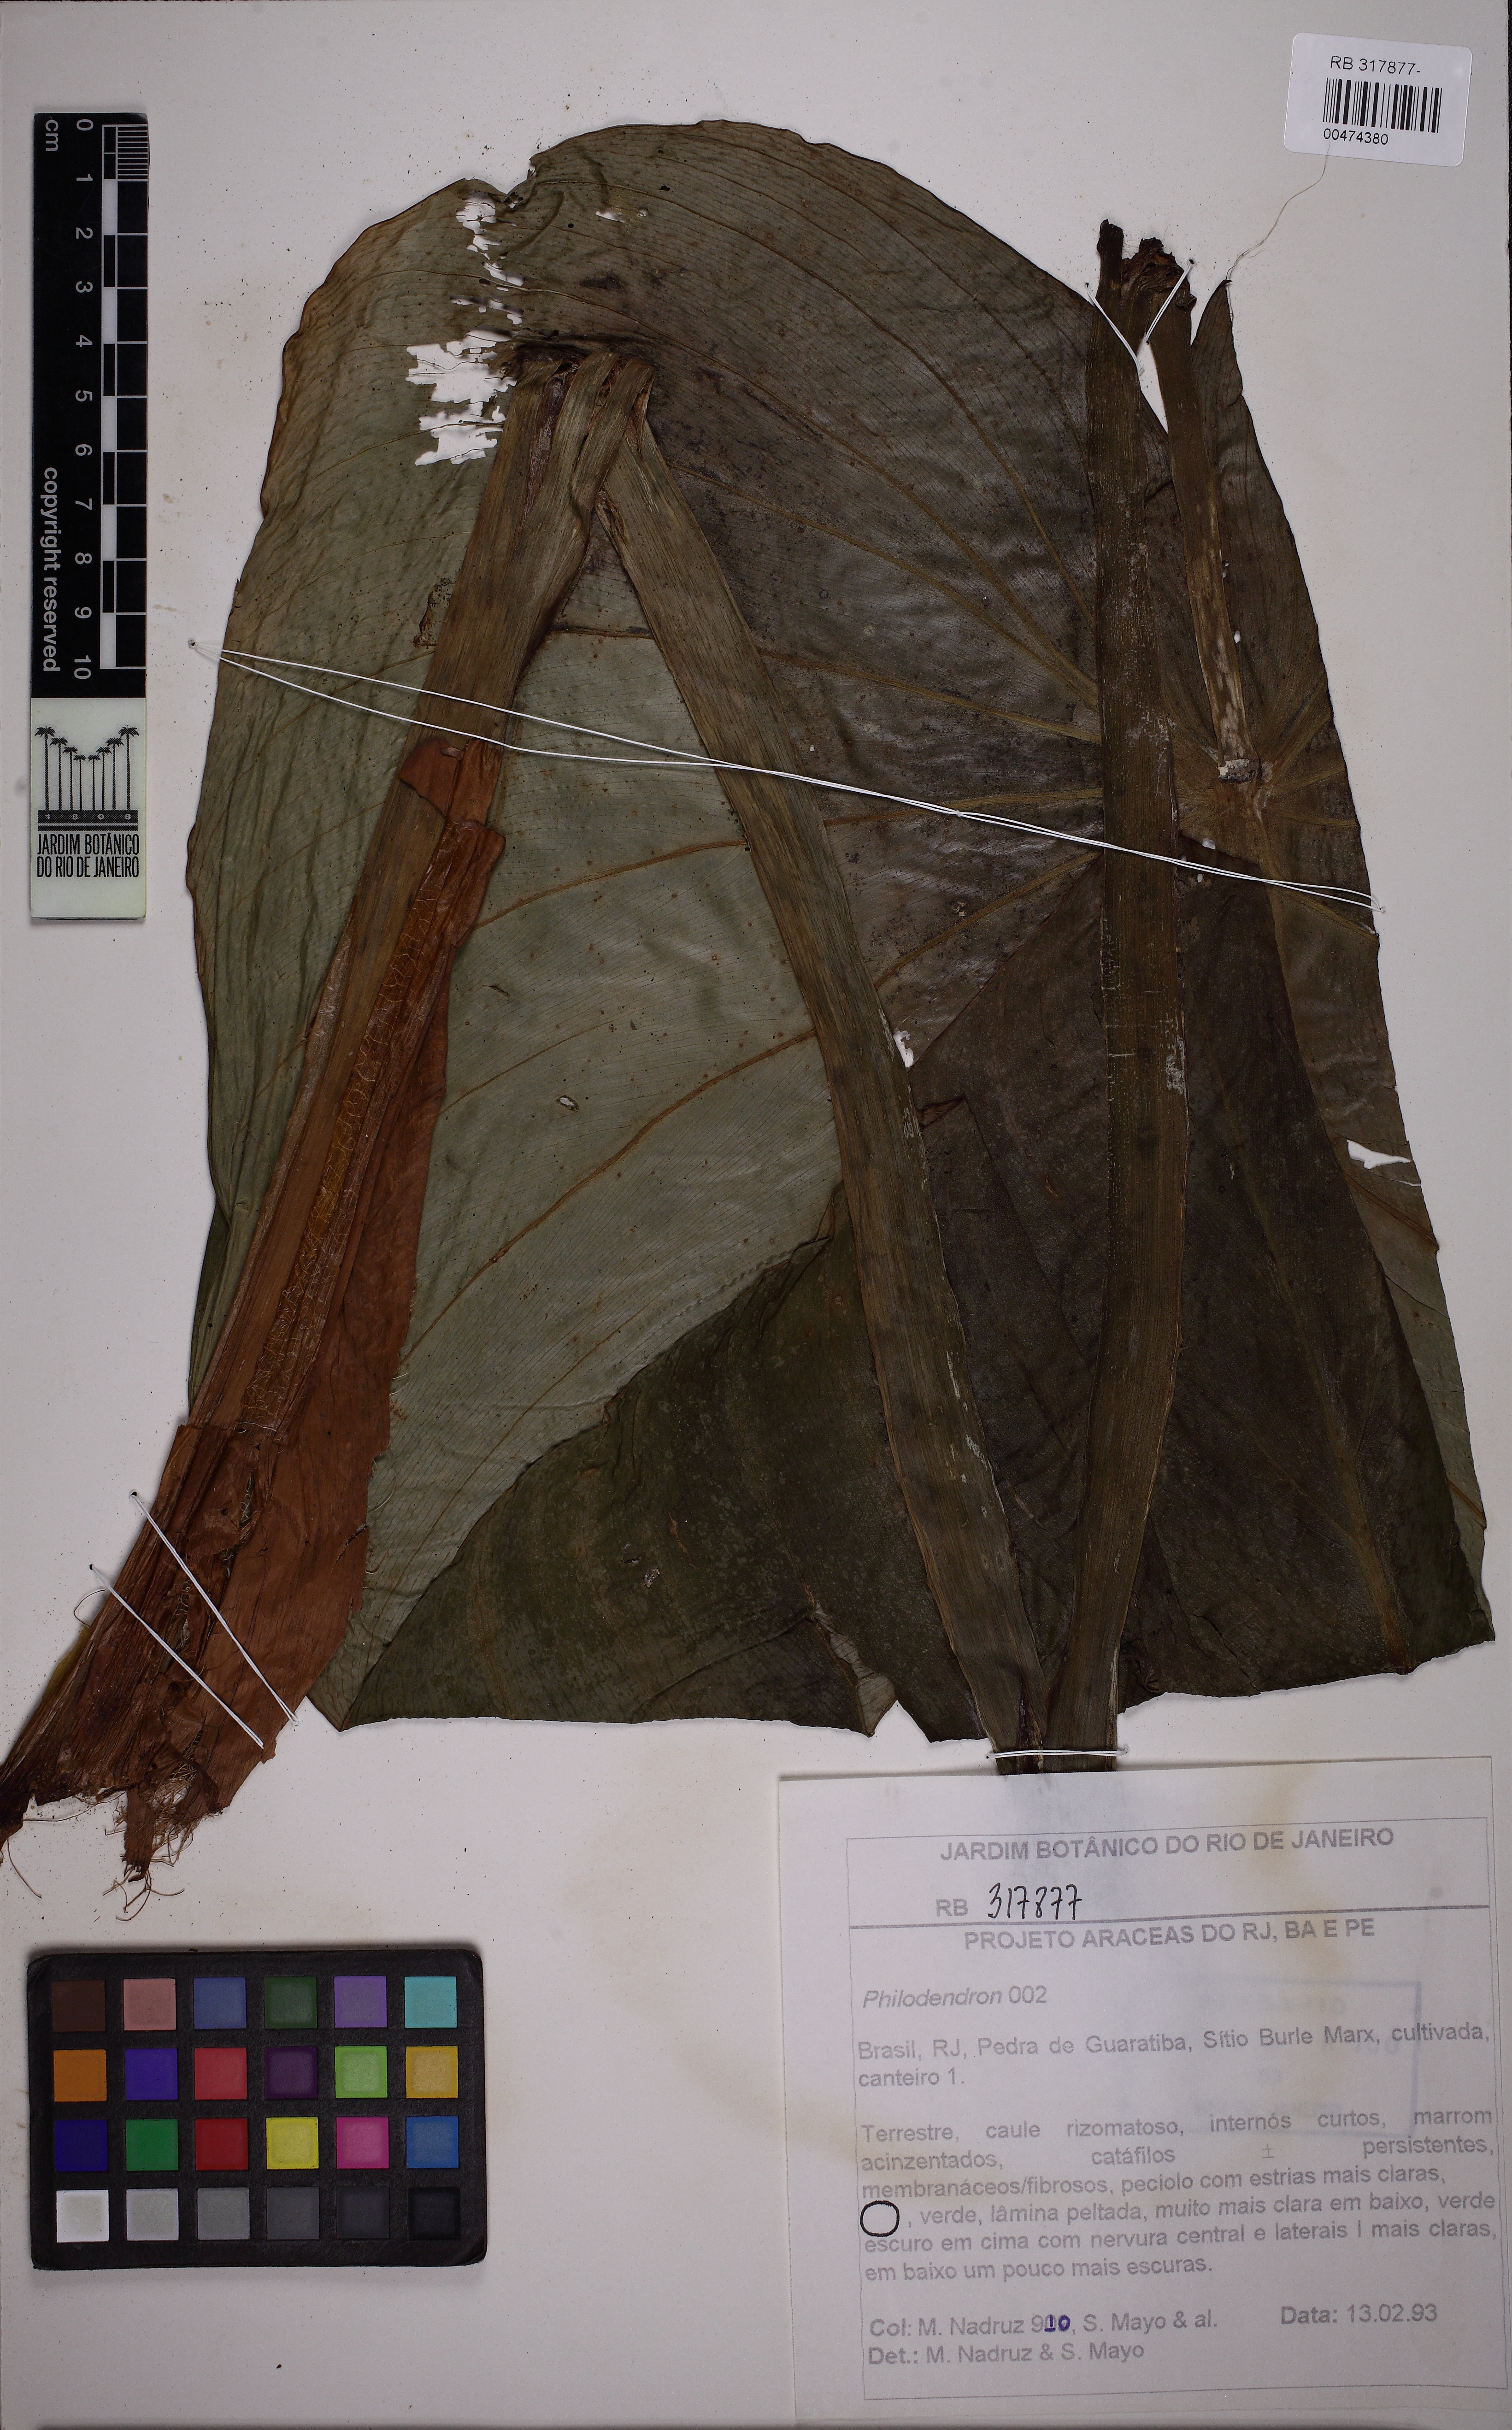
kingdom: Plantae
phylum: Tracheophyta
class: Liliopsida
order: Alismatales
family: Araceae
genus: Philodendron
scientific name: Philodendron mamei
